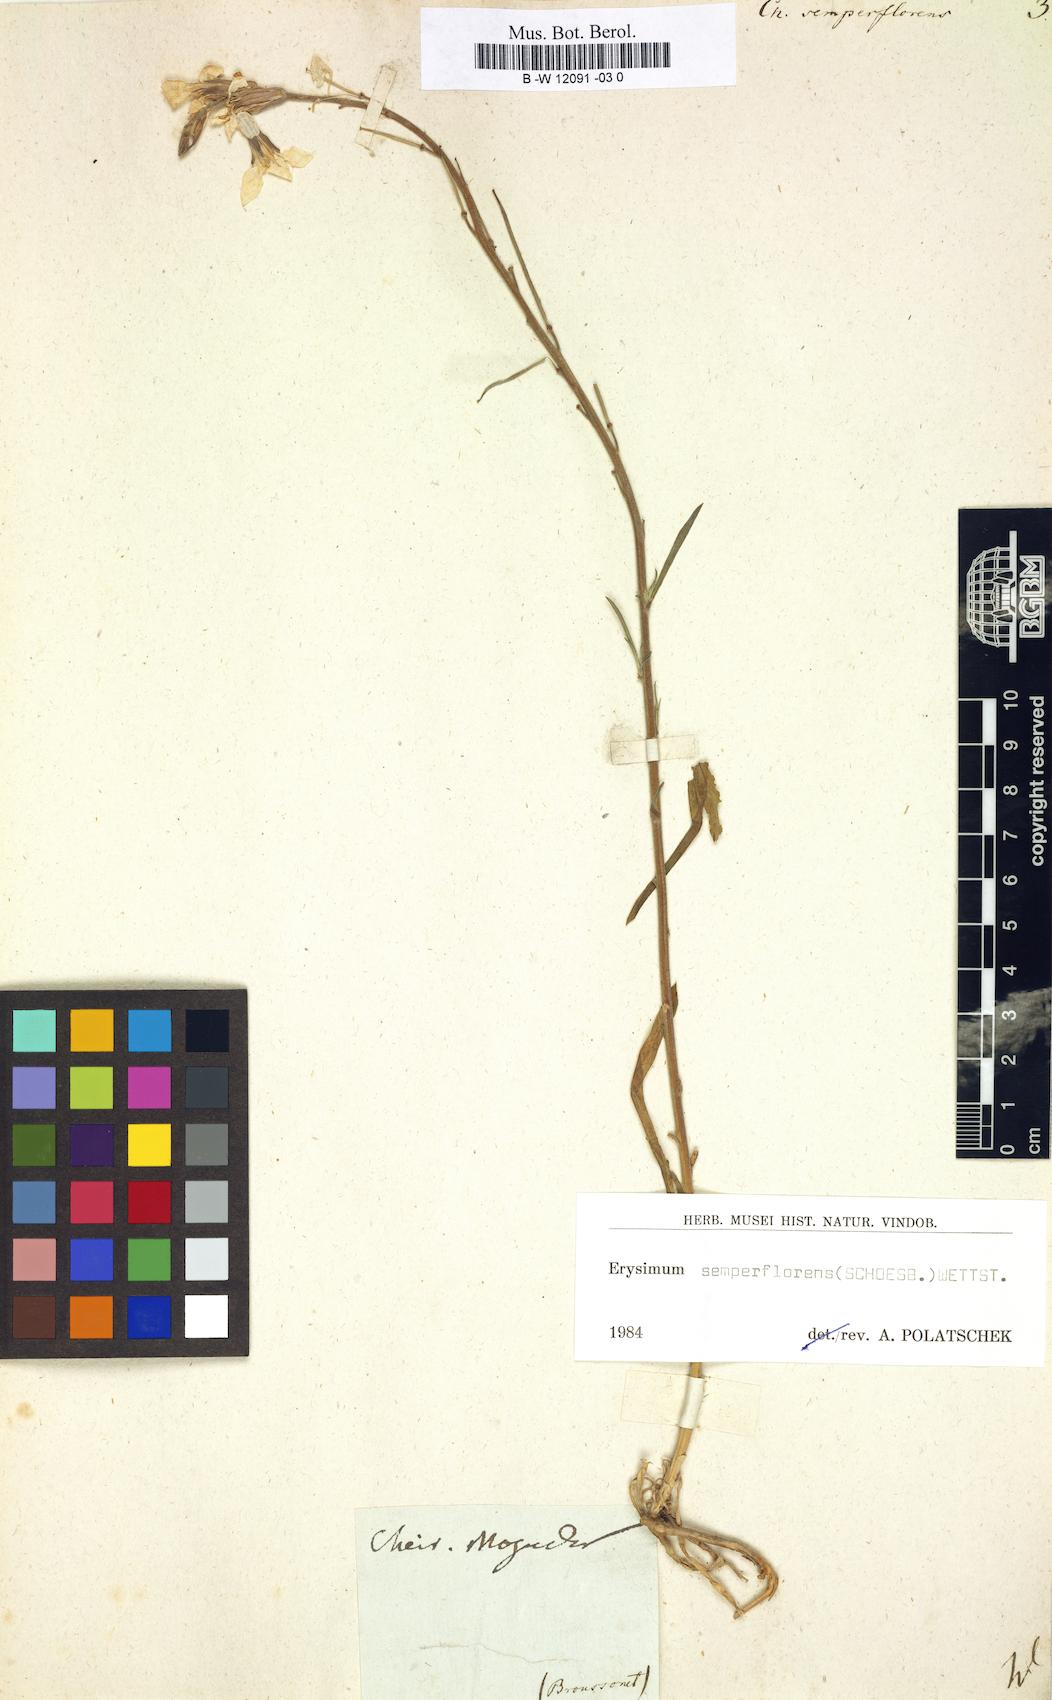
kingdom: Plantae
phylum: Tracheophyta
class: Magnoliopsida
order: Brassicales
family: Brassicaceae
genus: Erysimum
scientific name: Erysimum
